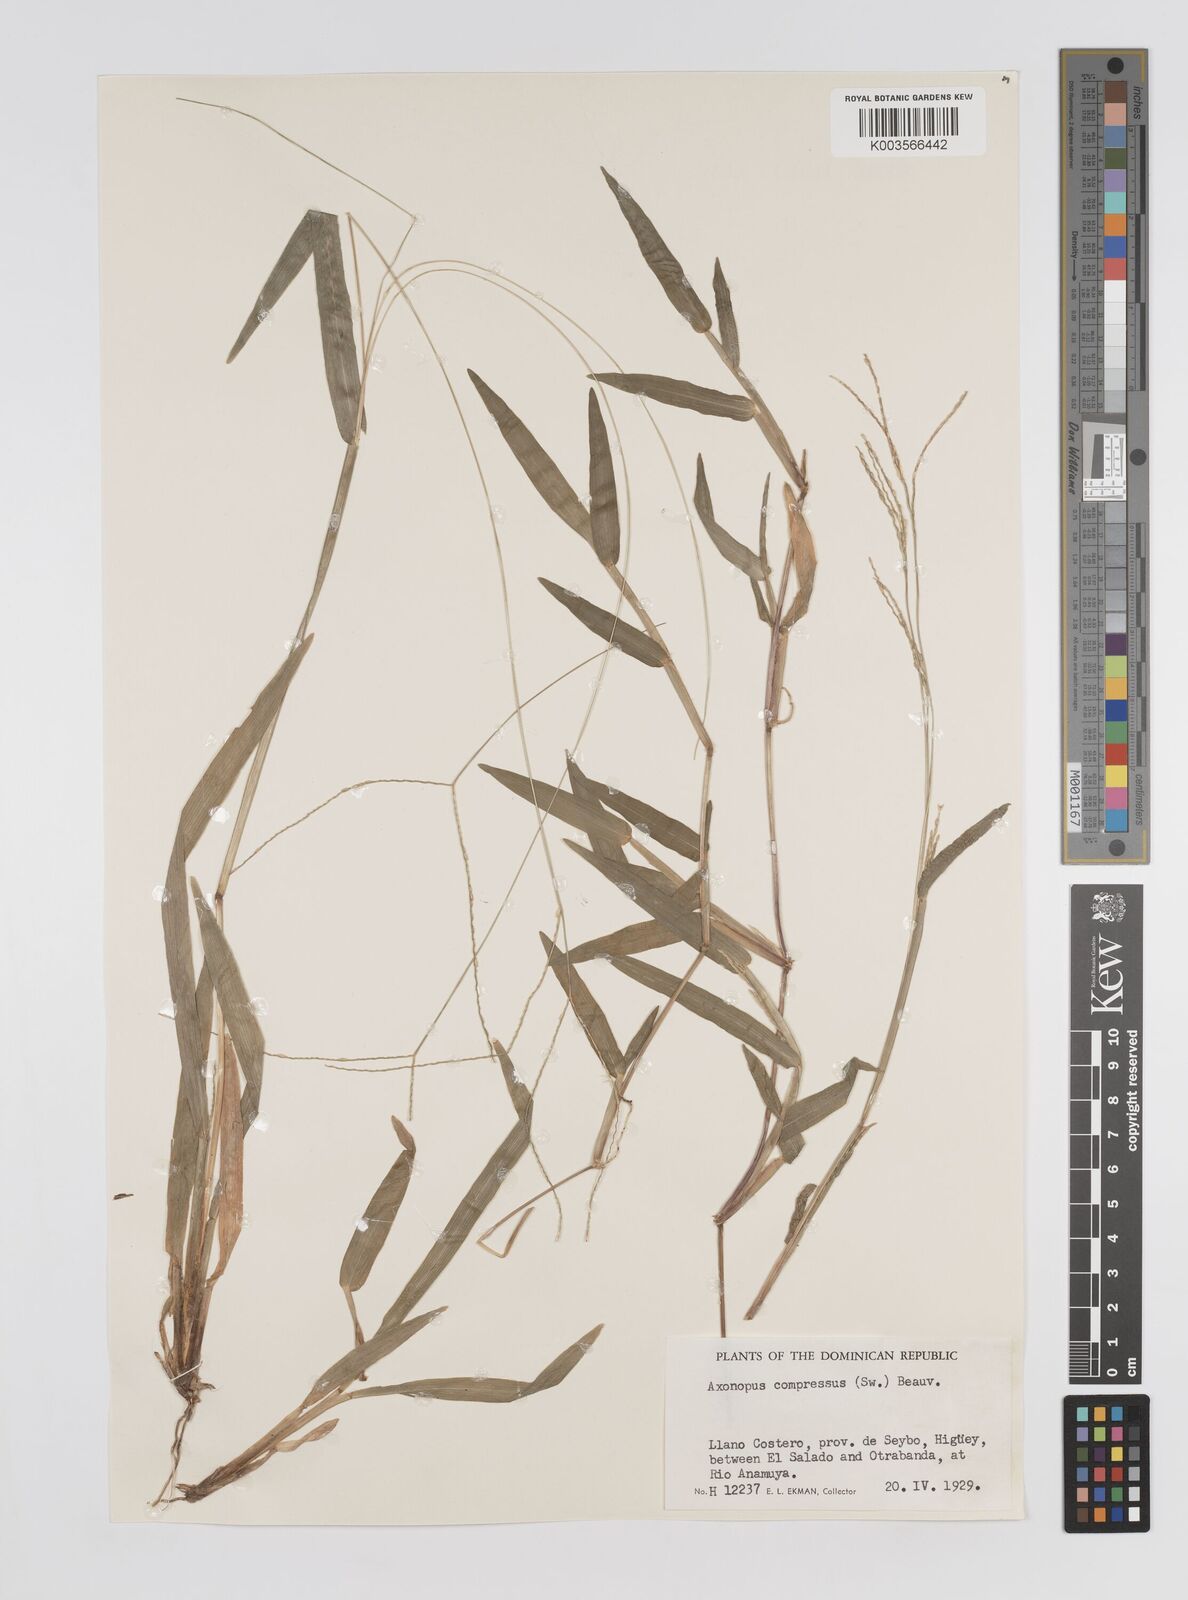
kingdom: Plantae
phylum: Tracheophyta
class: Liliopsida
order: Poales
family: Poaceae
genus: Axonopus
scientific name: Axonopus compressus
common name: American carpet grass
